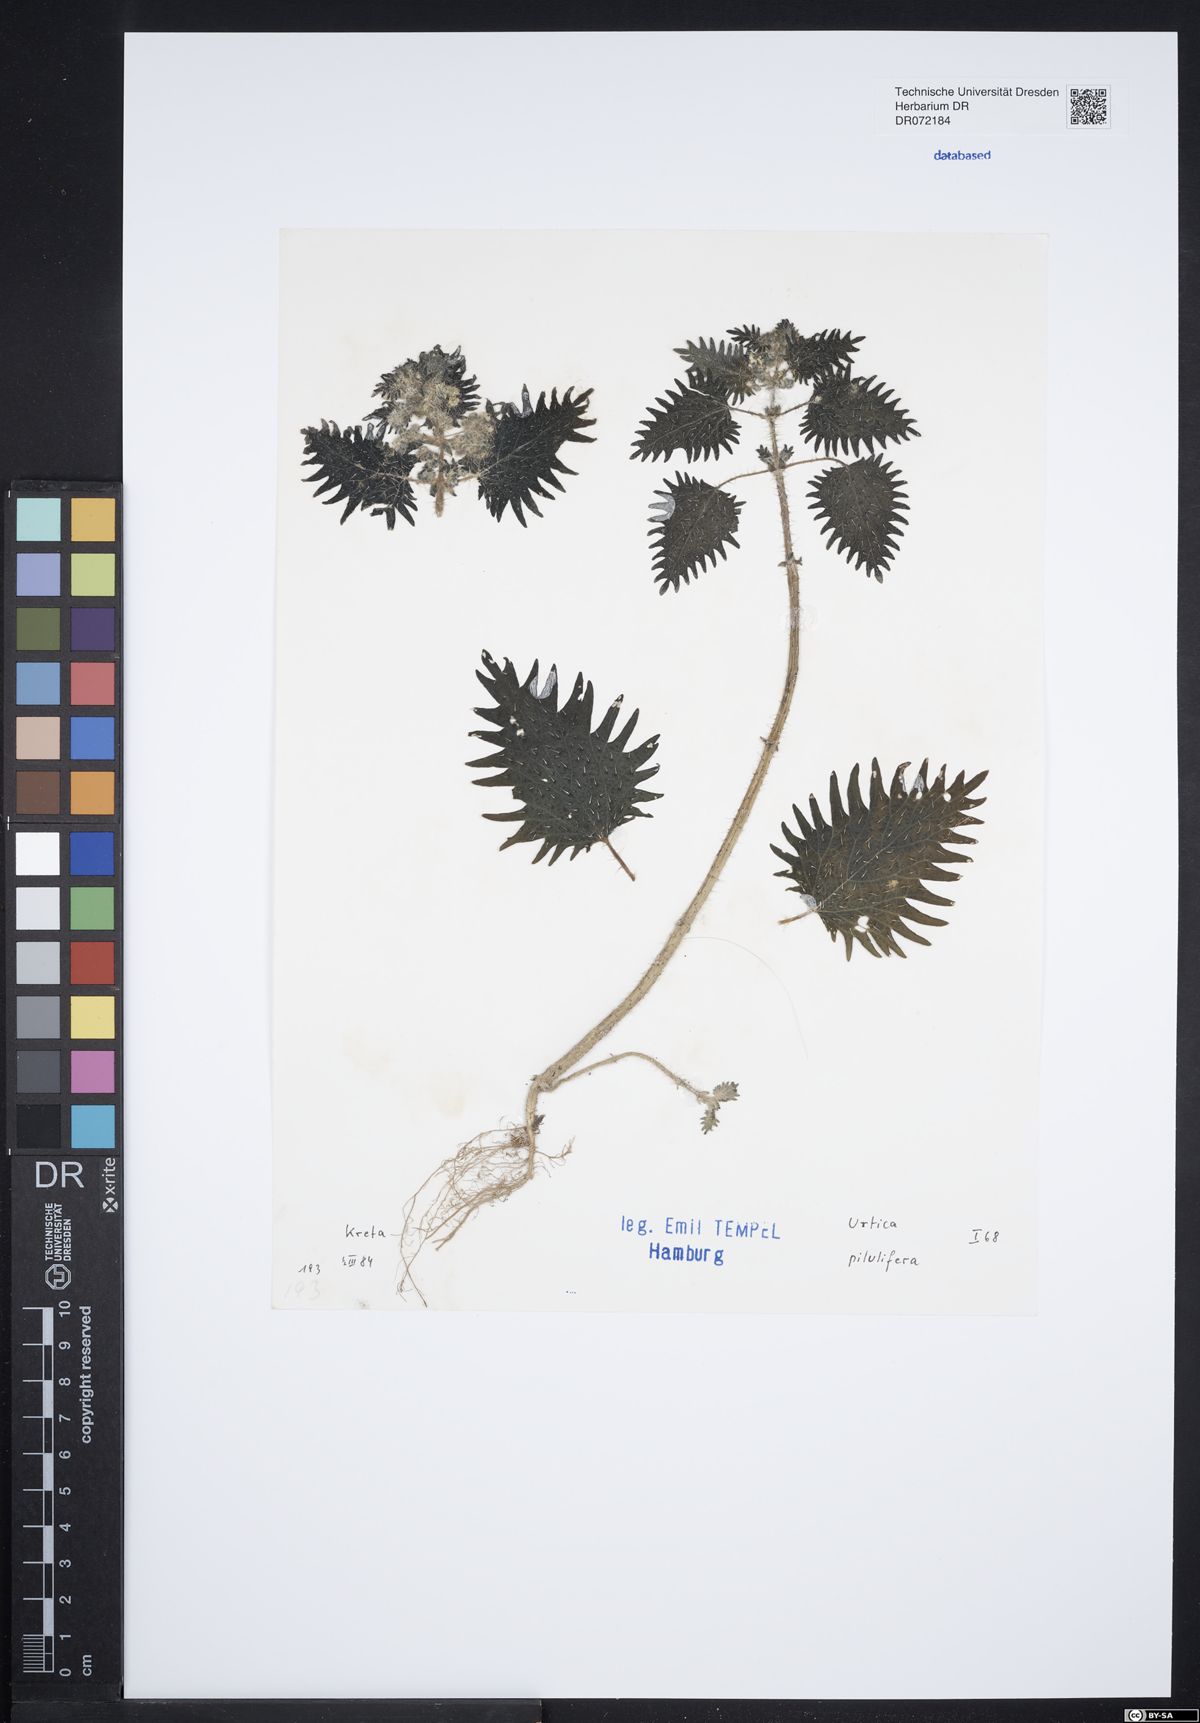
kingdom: Plantae
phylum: Tracheophyta
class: Magnoliopsida
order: Rosales
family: Urticaceae
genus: Urtica
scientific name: Urtica pilulifera
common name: Roman nettle
